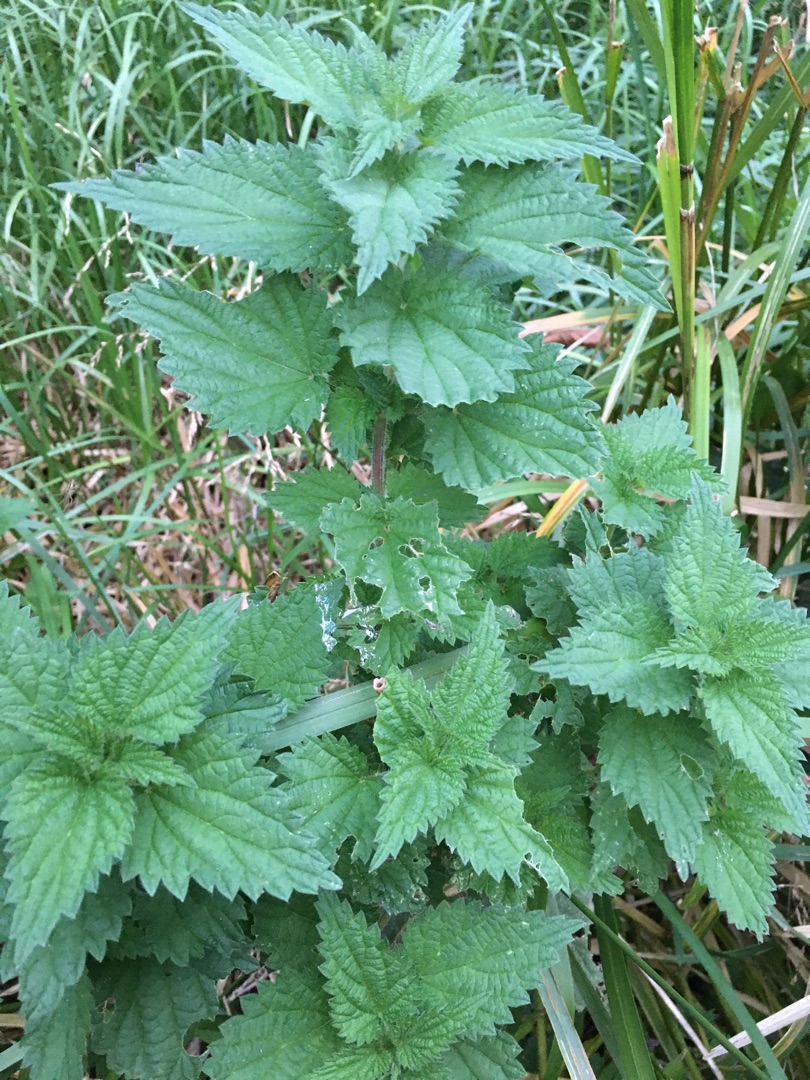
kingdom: Plantae
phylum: Tracheophyta
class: Magnoliopsida
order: Rosales
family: Urticaceae
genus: Urtica
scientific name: Urtica dioica
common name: Stor nælde
